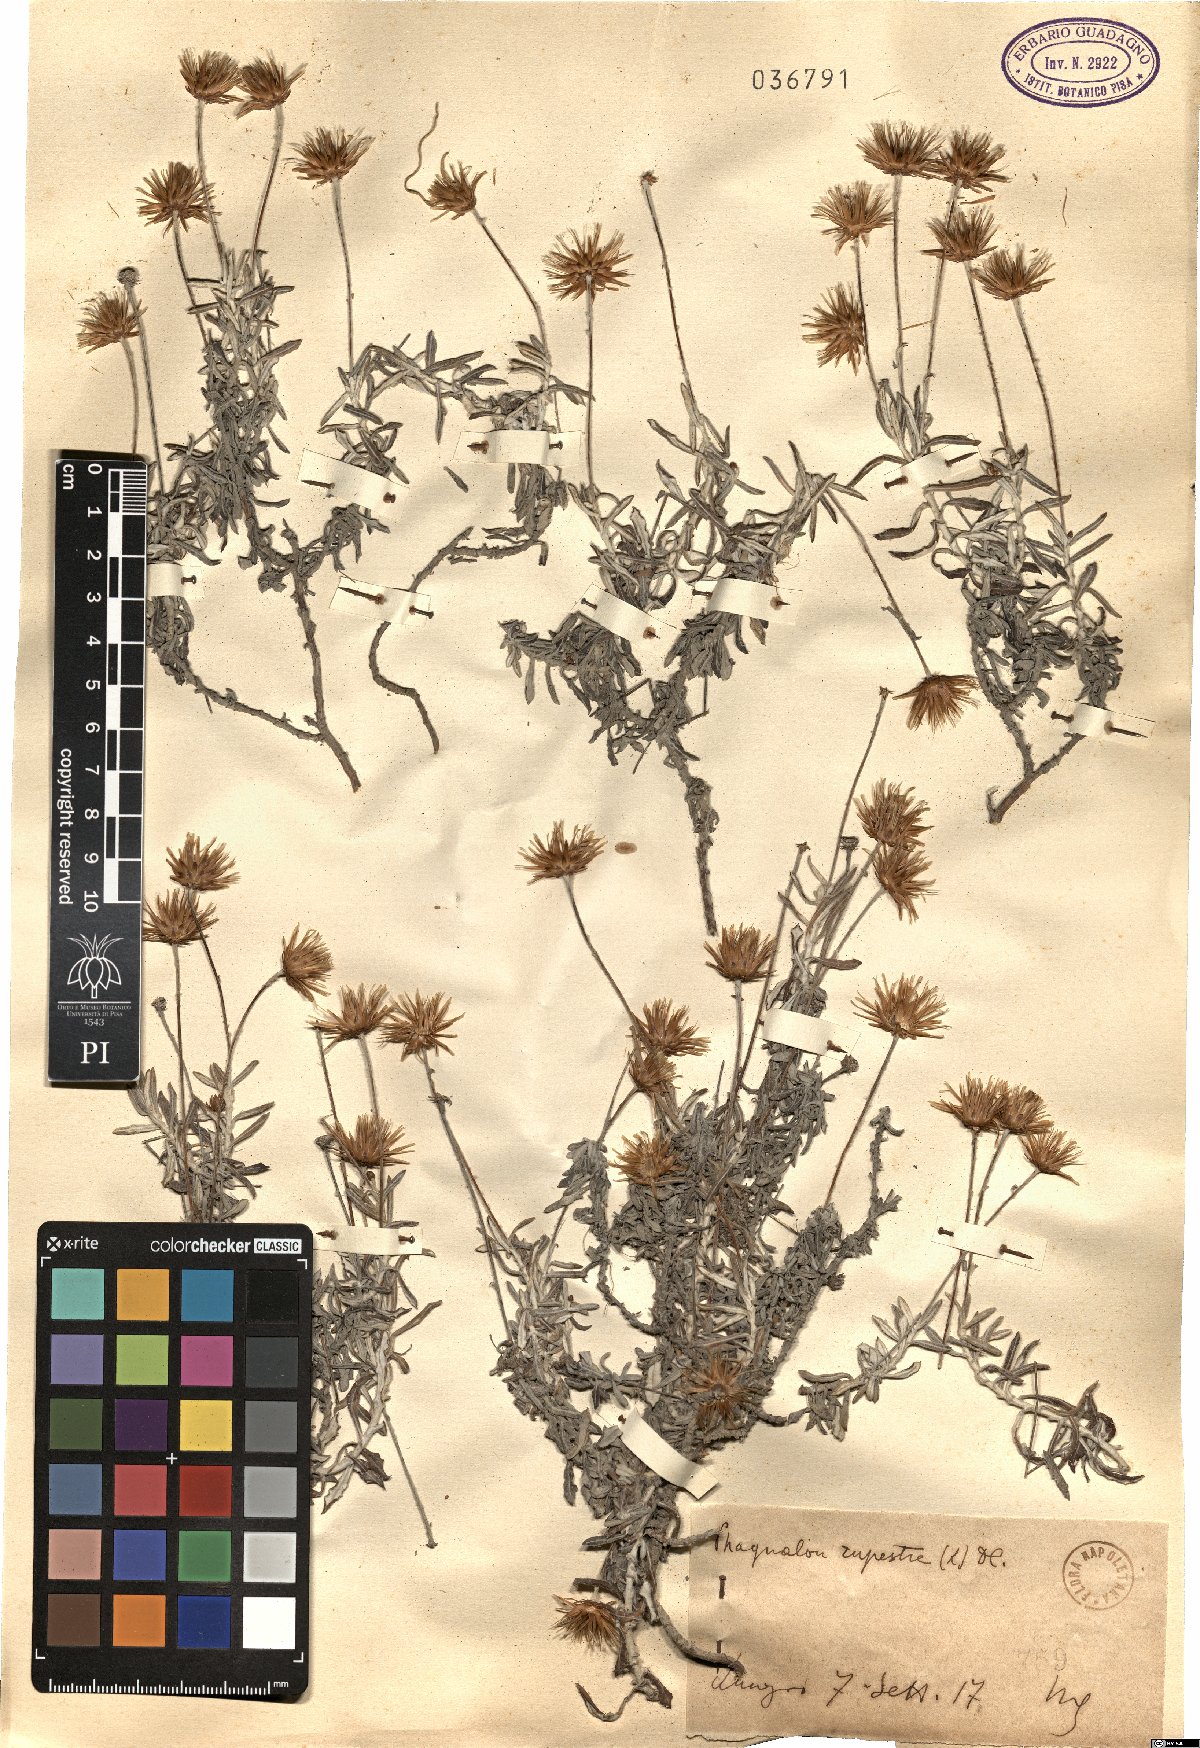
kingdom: Plantae
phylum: Tracheophyta
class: Magnoliopsida
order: Asterales
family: Asteraceae
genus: Phagnalon
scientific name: Phagnalon rupestre
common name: Rock phagnalon
